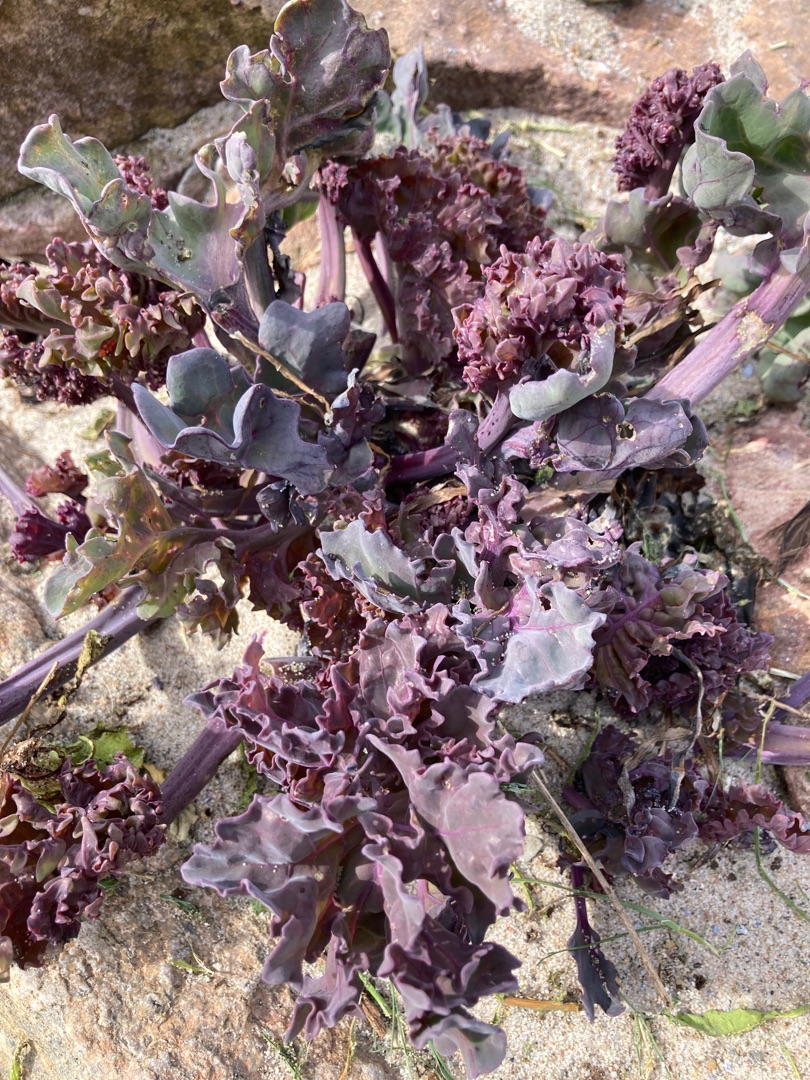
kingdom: Plantae
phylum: Tracheophyta
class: Magnoliopsida
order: Brassicales
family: Brassicaceae
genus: Crambe
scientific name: Crambe maritima
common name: Strandkål
